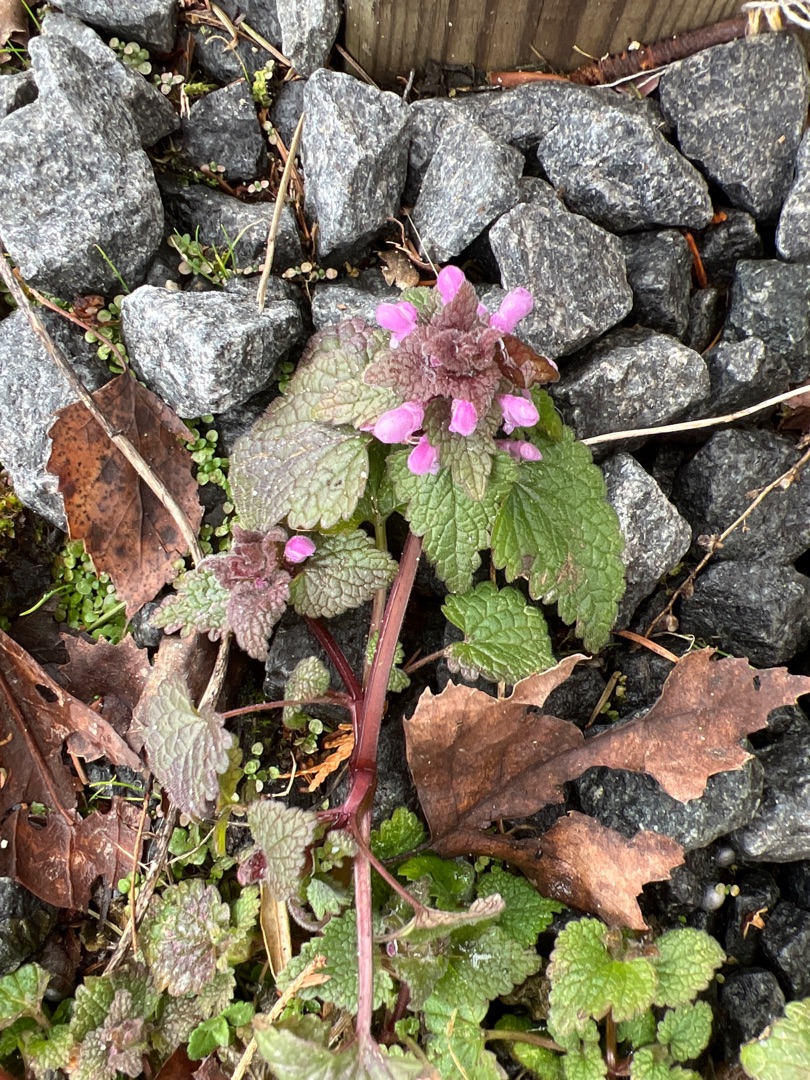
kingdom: Plantae
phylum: Tracheophyta
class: Magnoliopsida
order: Lamiales
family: Lamiaceae
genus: Lamium
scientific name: Lamium purpureum
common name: Rød tvetand
